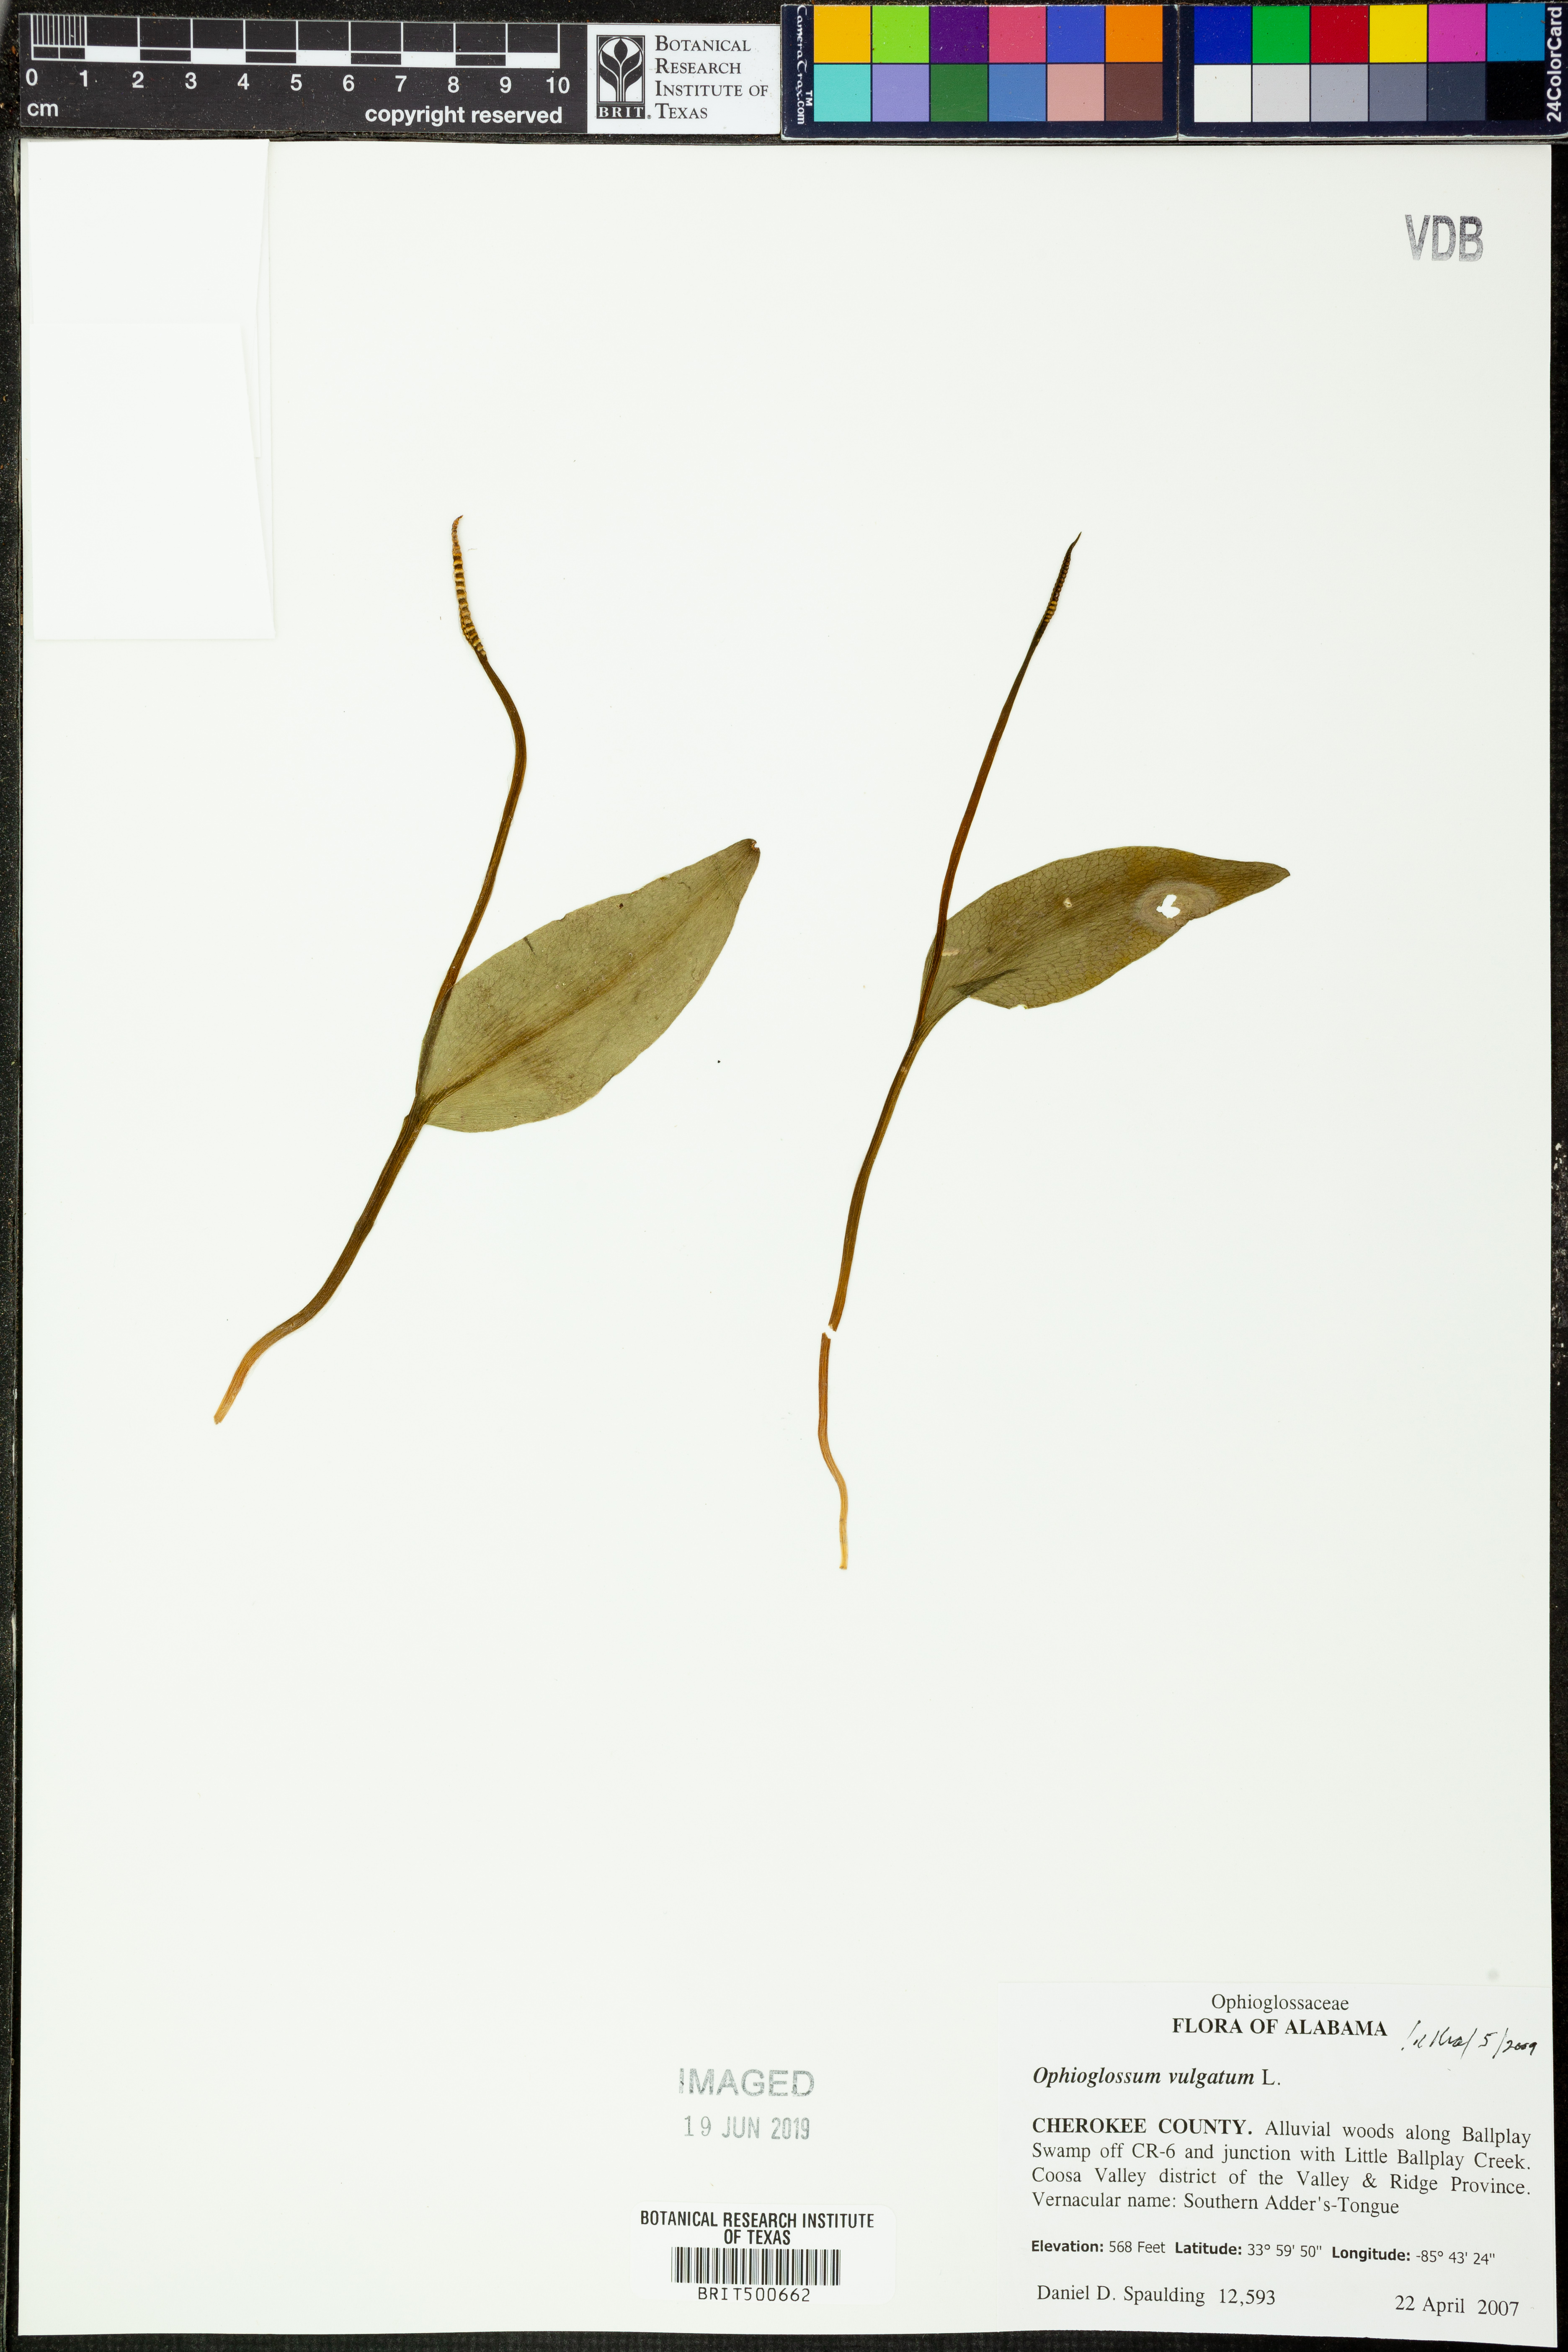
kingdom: Plantae
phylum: Tracheophyta
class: Polypodiopsida
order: Ophioglossales
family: Ophioglossaceae
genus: Ophioglossum
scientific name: Ophioglossum vulgatum
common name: Adder's-tongue
